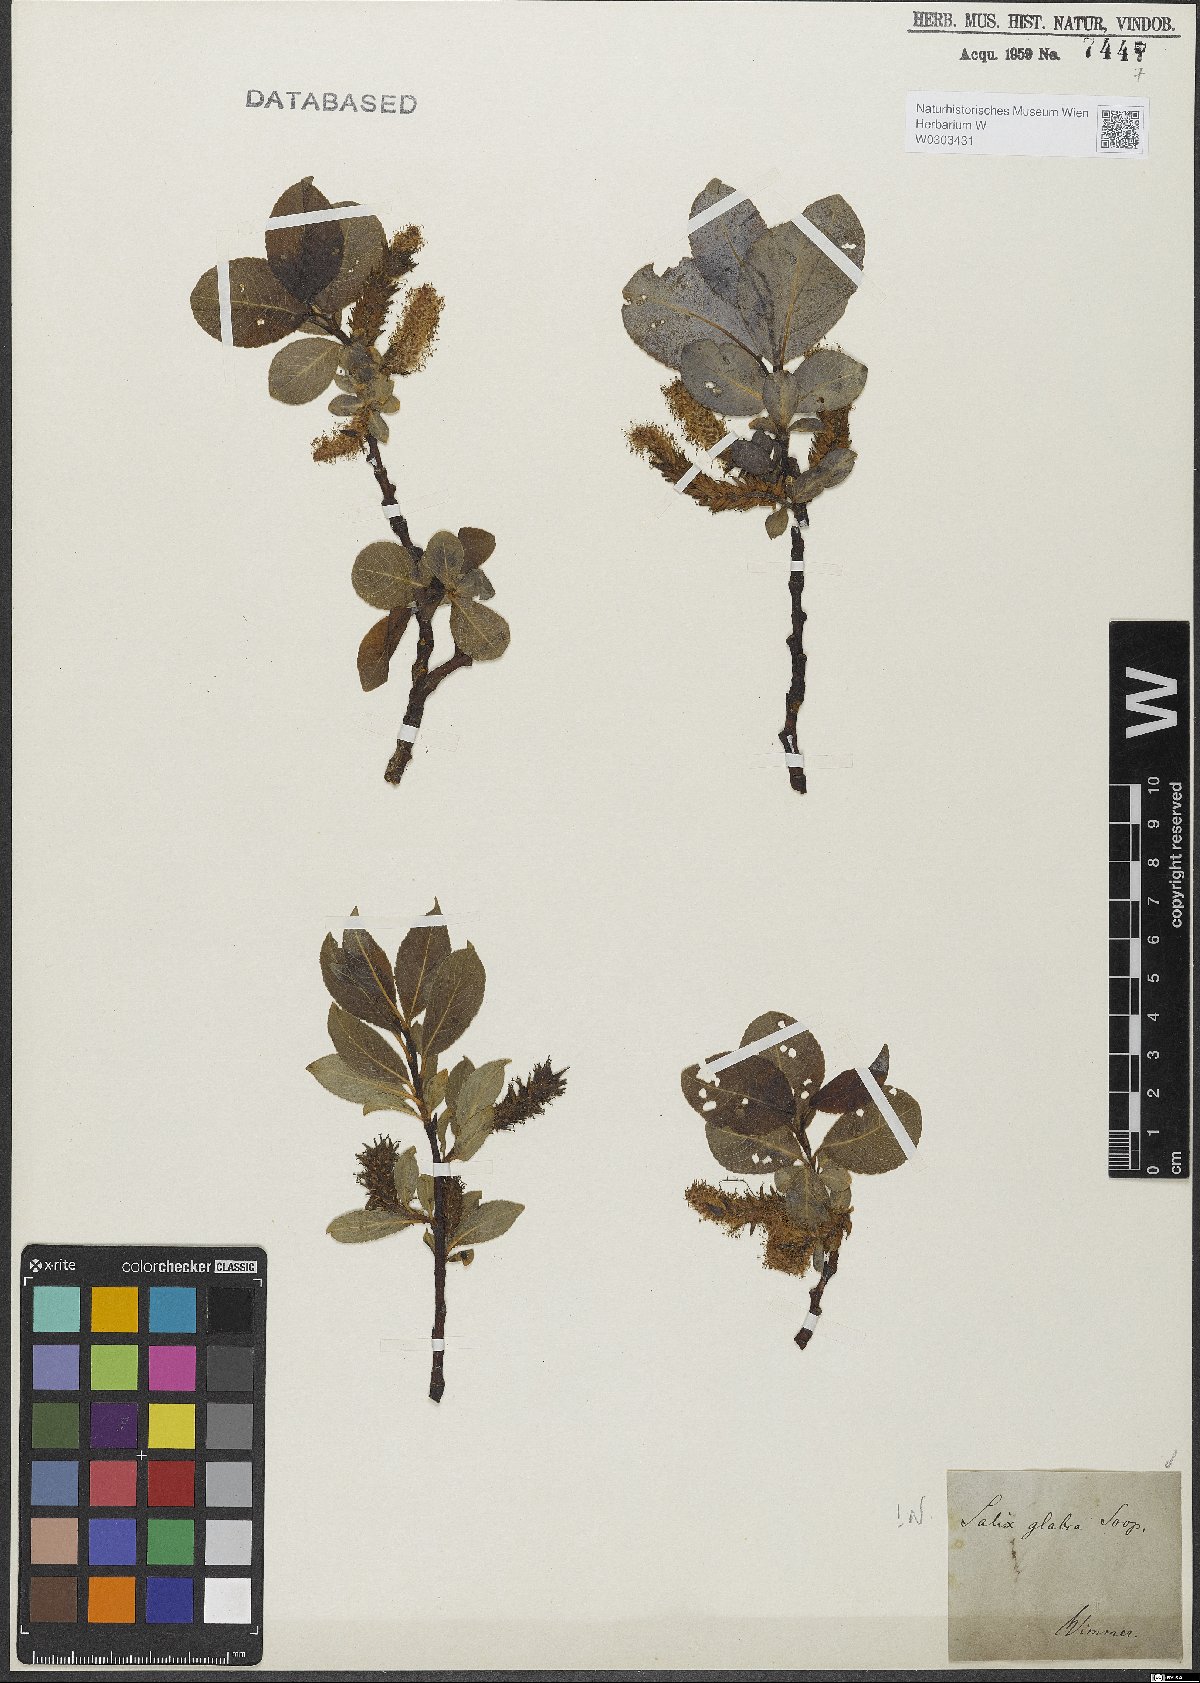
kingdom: Plantae
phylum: Tracheophyta
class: Magnoliopsida
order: Malpighiales
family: Salicaceae
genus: Salix
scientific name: Salix glabra
